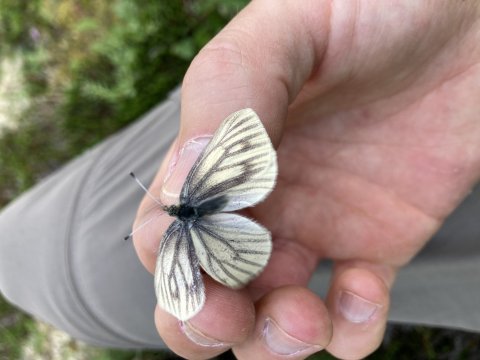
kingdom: Animalia
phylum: Arthropoda
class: Insecta
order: Lepidoptera
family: Pieridae
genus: Pieris
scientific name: Pieris angelika
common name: Arctic White
